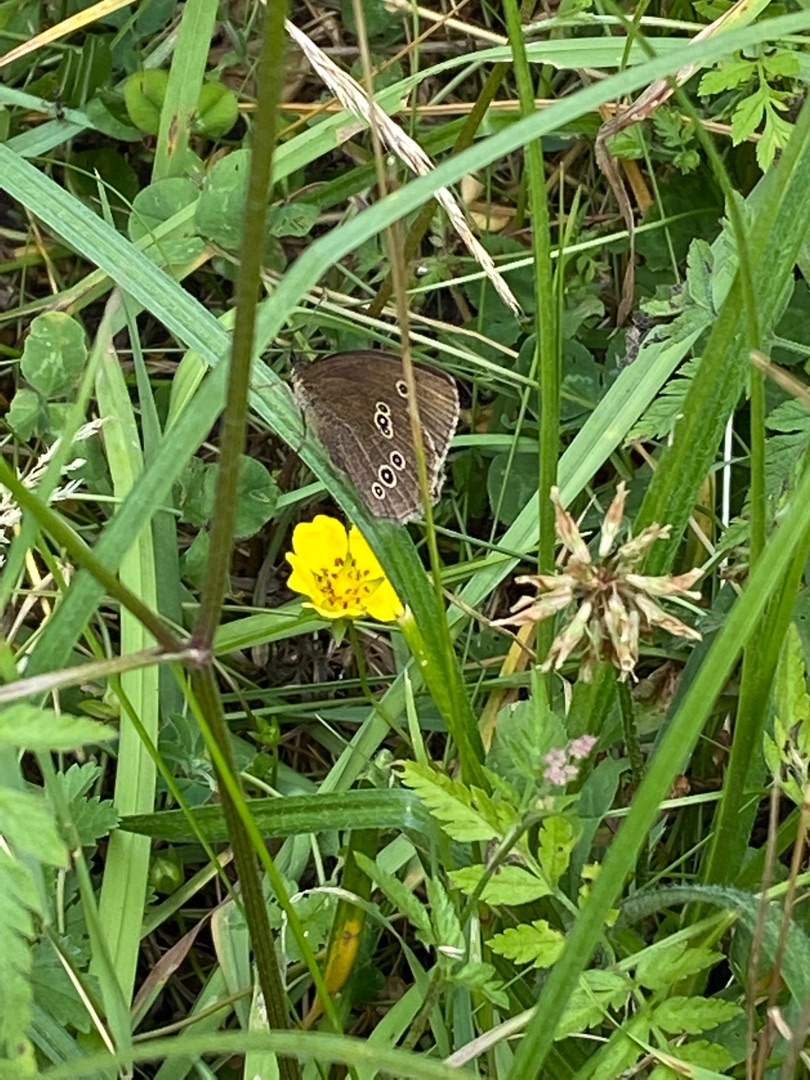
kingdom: Animalia
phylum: Arthropoda
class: Insecta
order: Lepidoptera
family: Nymphalidae
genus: Aphantopus
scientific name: Aphantopus hyperantus
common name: Engrandøje
